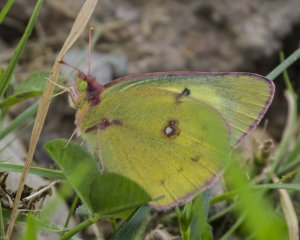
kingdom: Animalia
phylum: Arthropoda
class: Insecta
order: Lepidoptera
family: Pieridae
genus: Colias
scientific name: Colias philodice
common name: Clouded Sulphur
